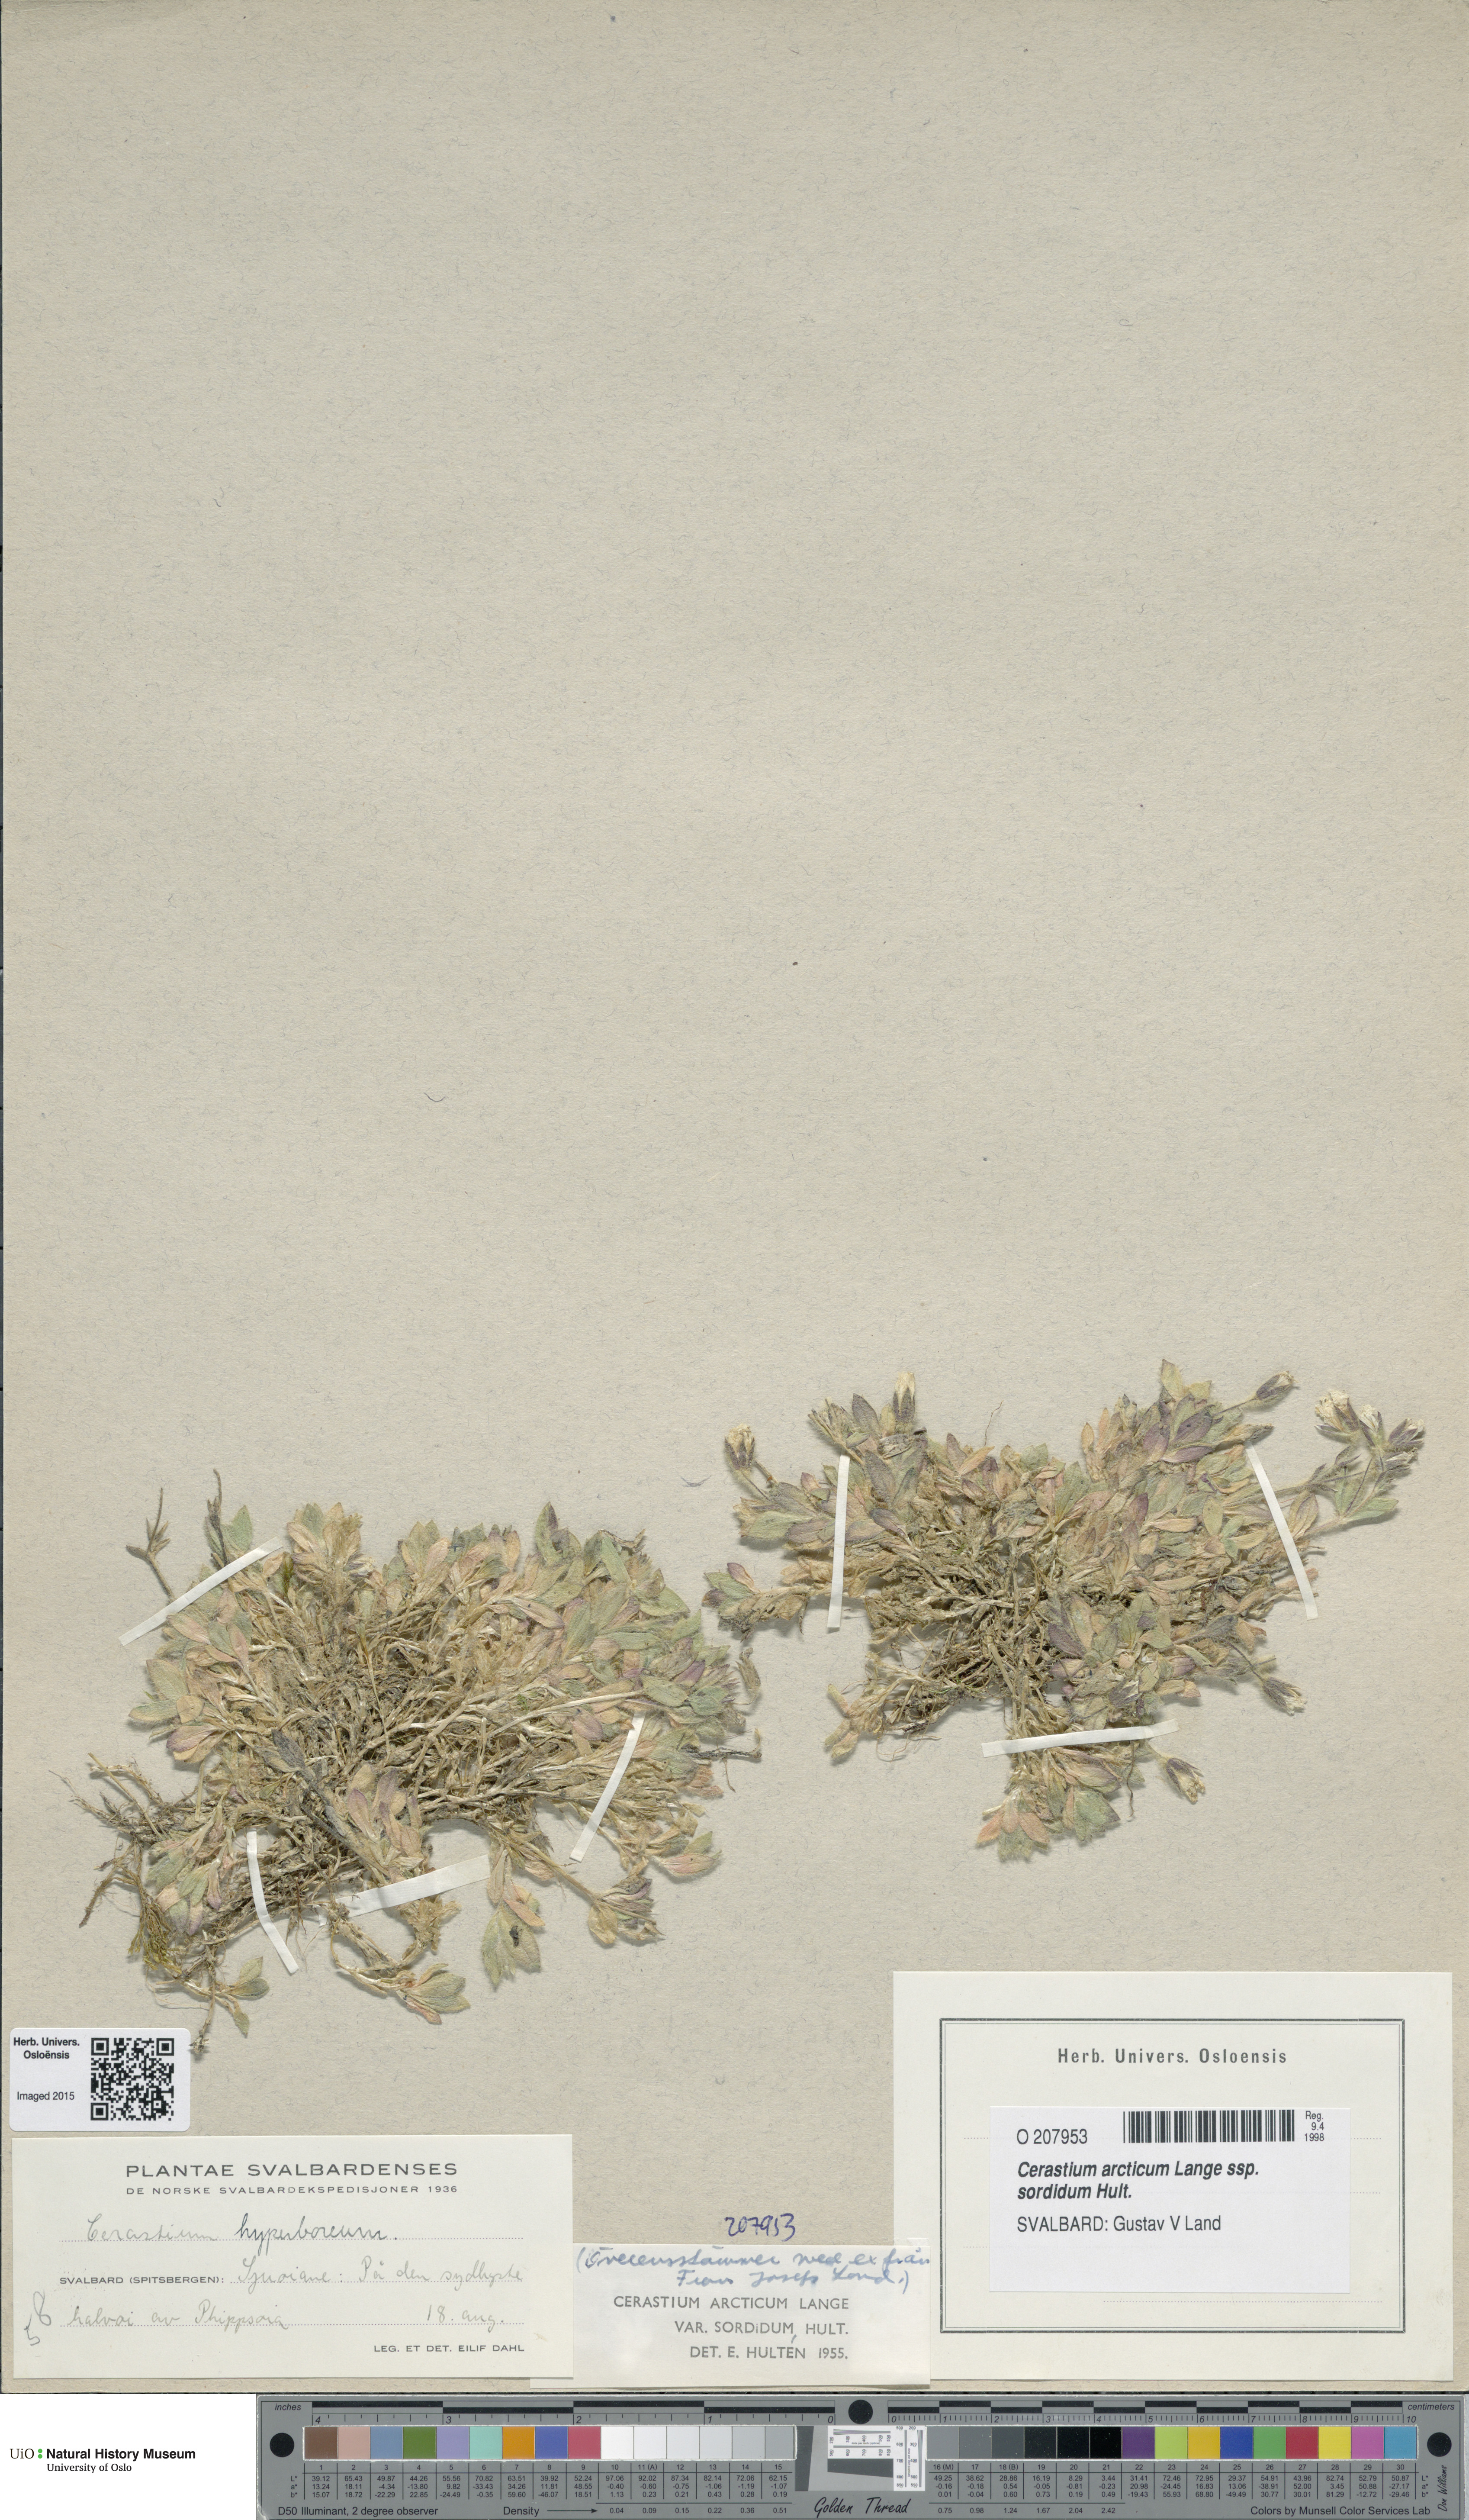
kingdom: Plantae
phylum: Tracheophyta
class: Magnoliopsida
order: Caryophyllales
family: Caryophyllaceae
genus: Cerastium
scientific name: Cerastium sordidum
